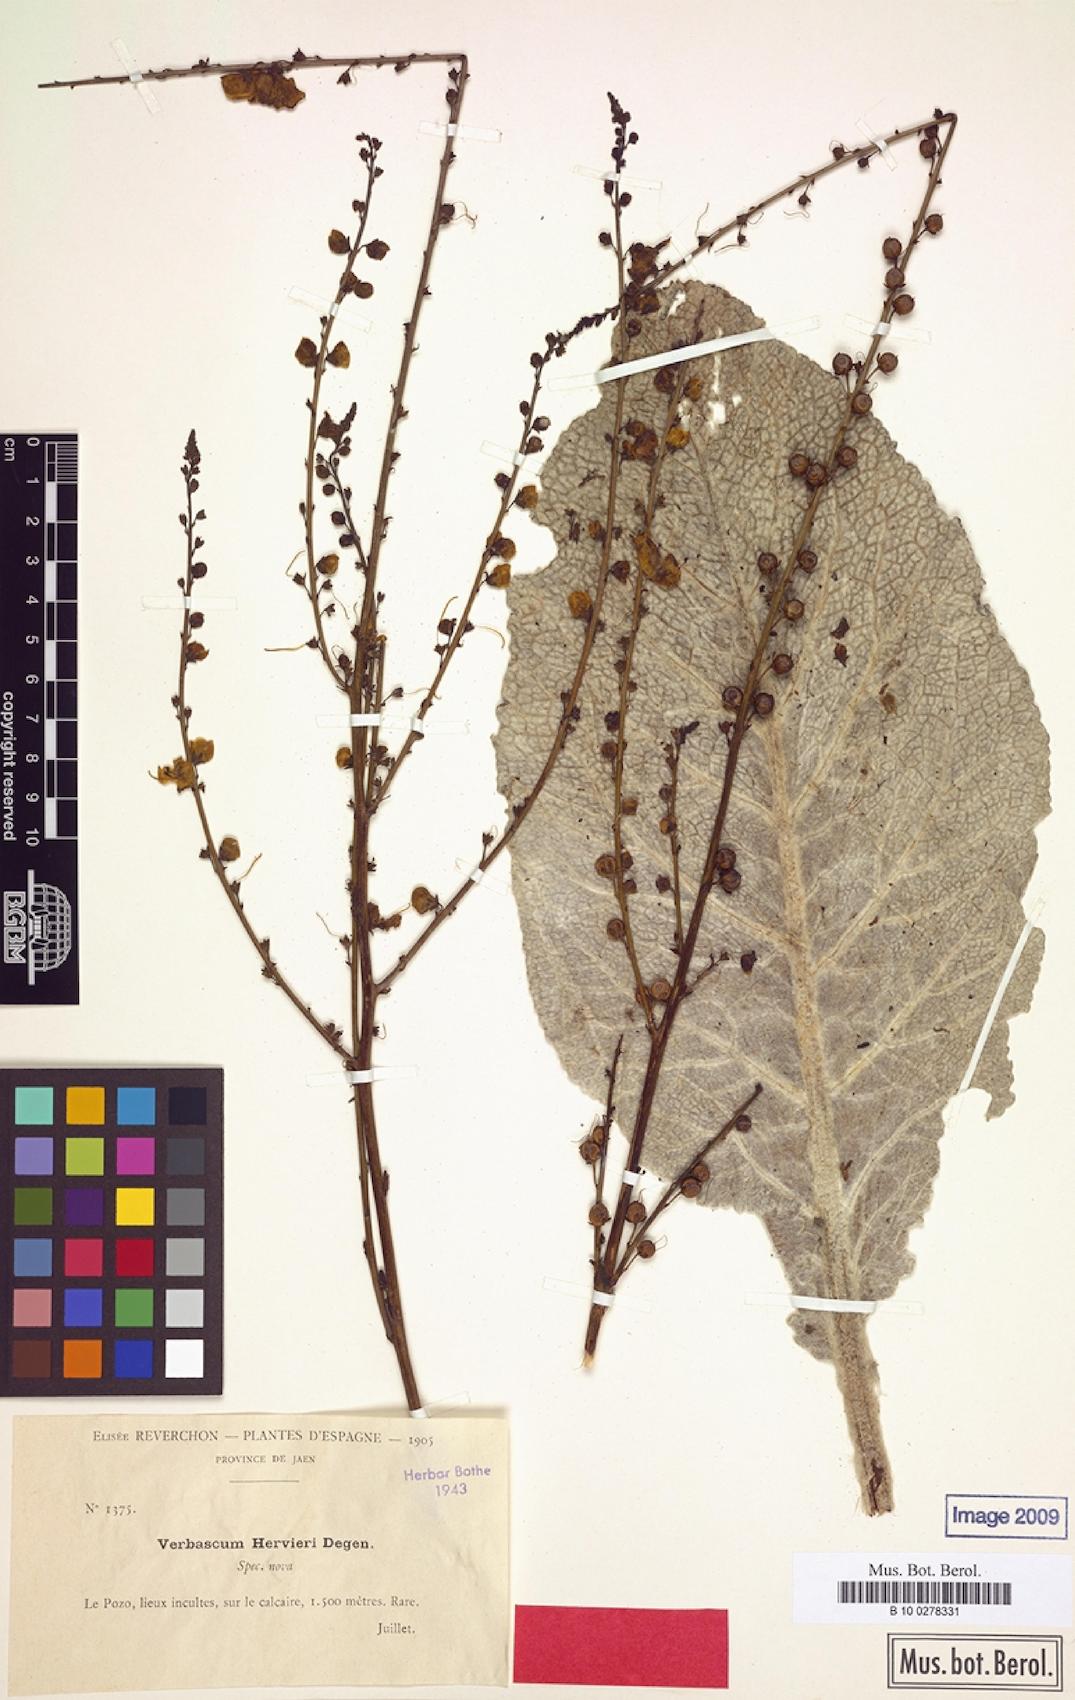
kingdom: Plantae
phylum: Tracheophyta
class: Magnoliopsida
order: Lamiales
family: Scrophulariaceae
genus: Verbascum
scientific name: Verbascum hervieri
